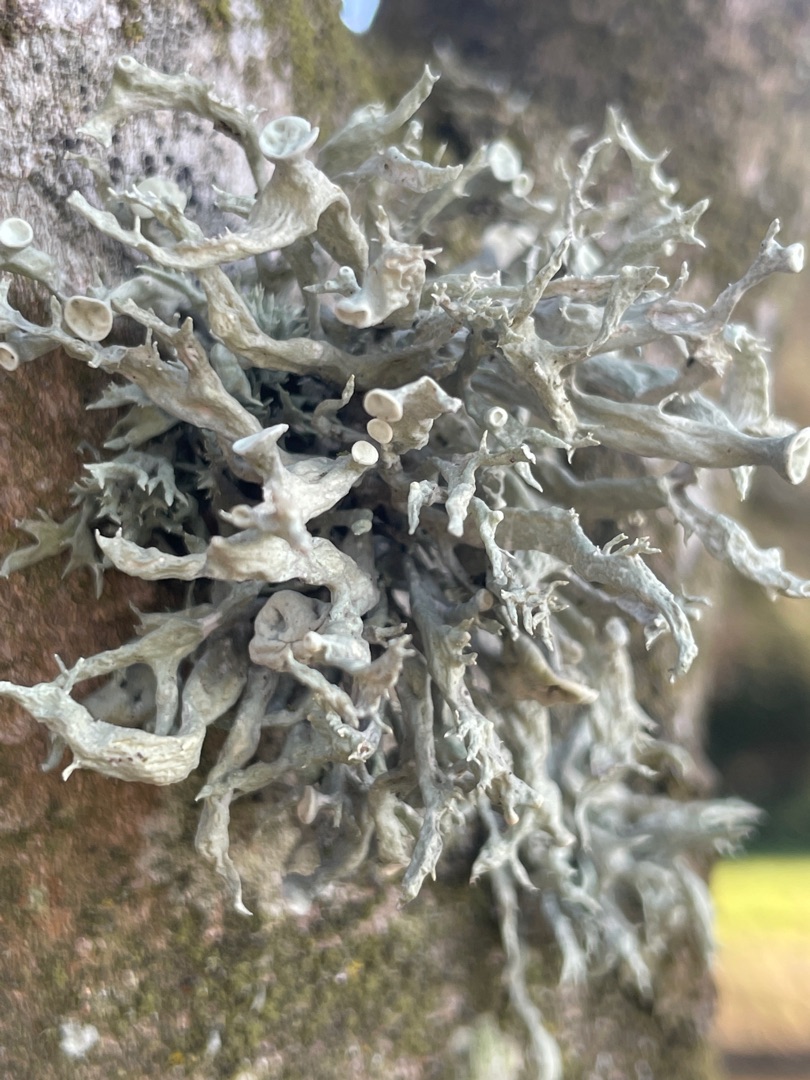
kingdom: Fungi
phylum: Ascomycota
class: Lecanoromycetes
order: Lecanorales
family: Ramalinaceae
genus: Ramalina
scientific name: Ramalina fastigiata
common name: Tue-grenlav
